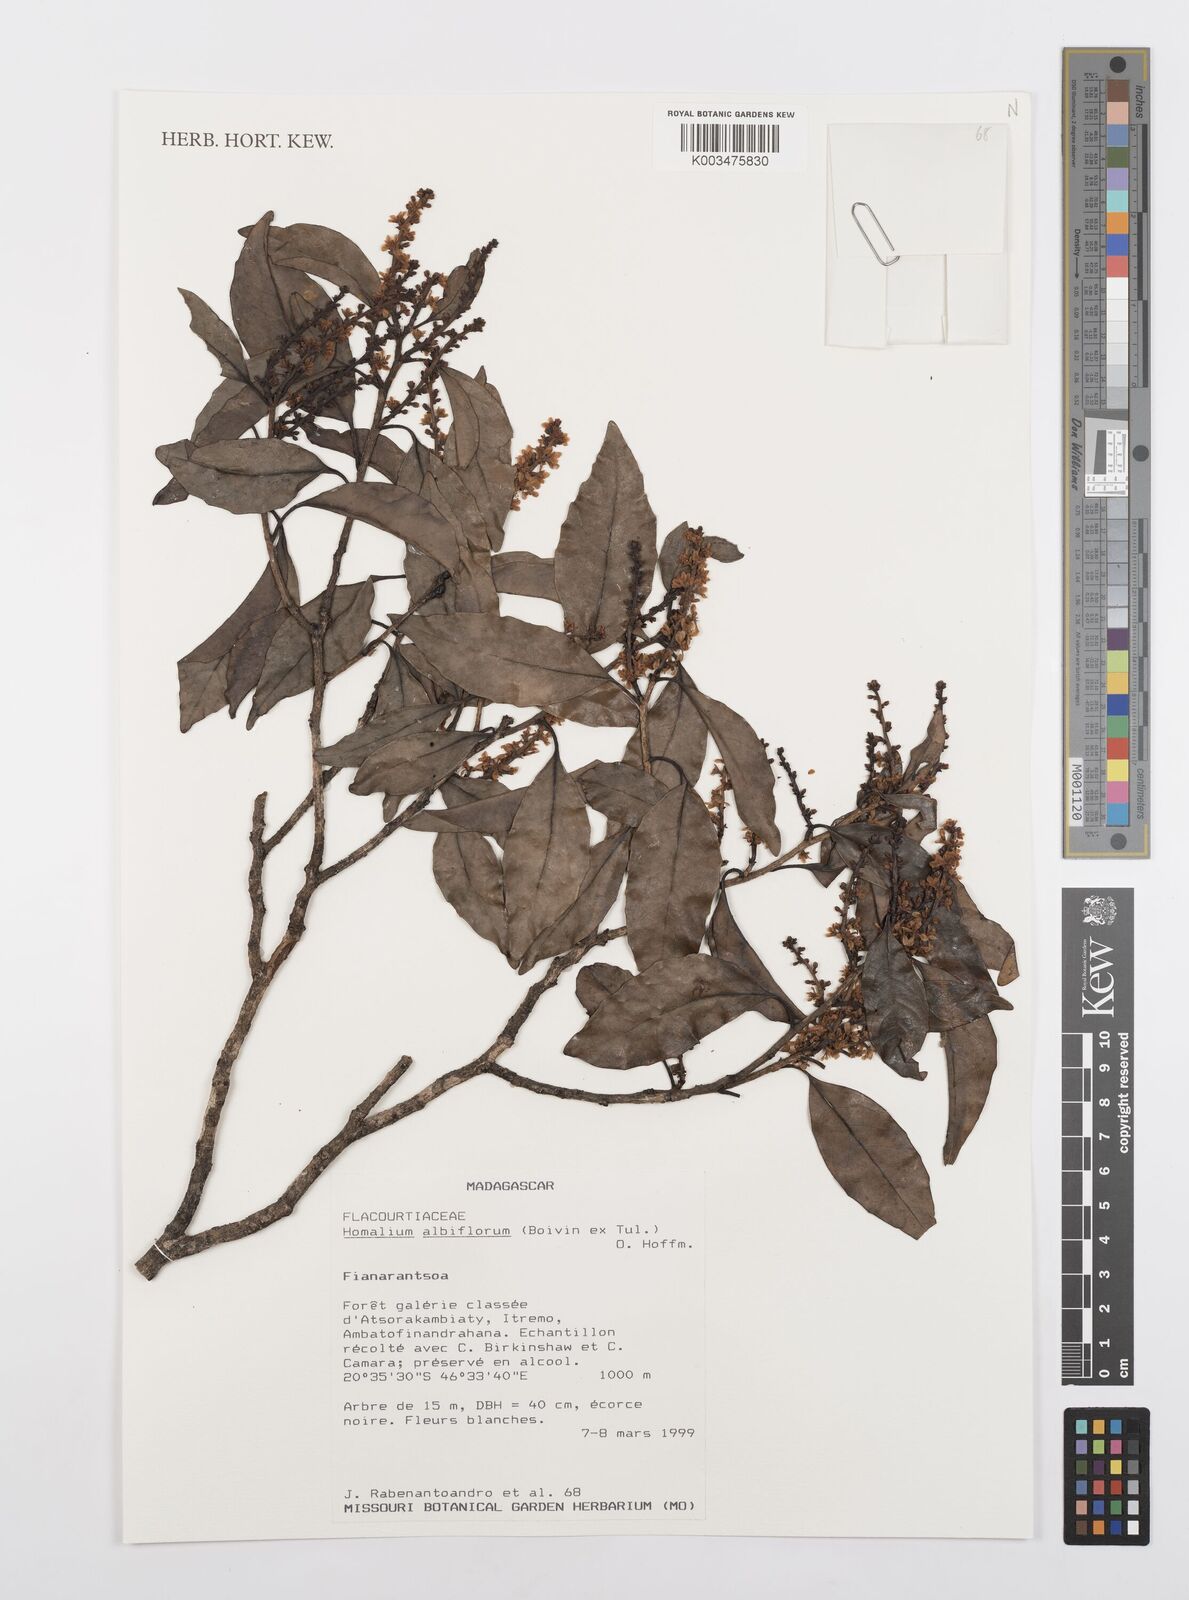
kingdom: Plantae
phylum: Tracheophyta
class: Magnoliopsida
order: Malpighiales
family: Salicaceae
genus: Homalium
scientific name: Homalium albiflorum
